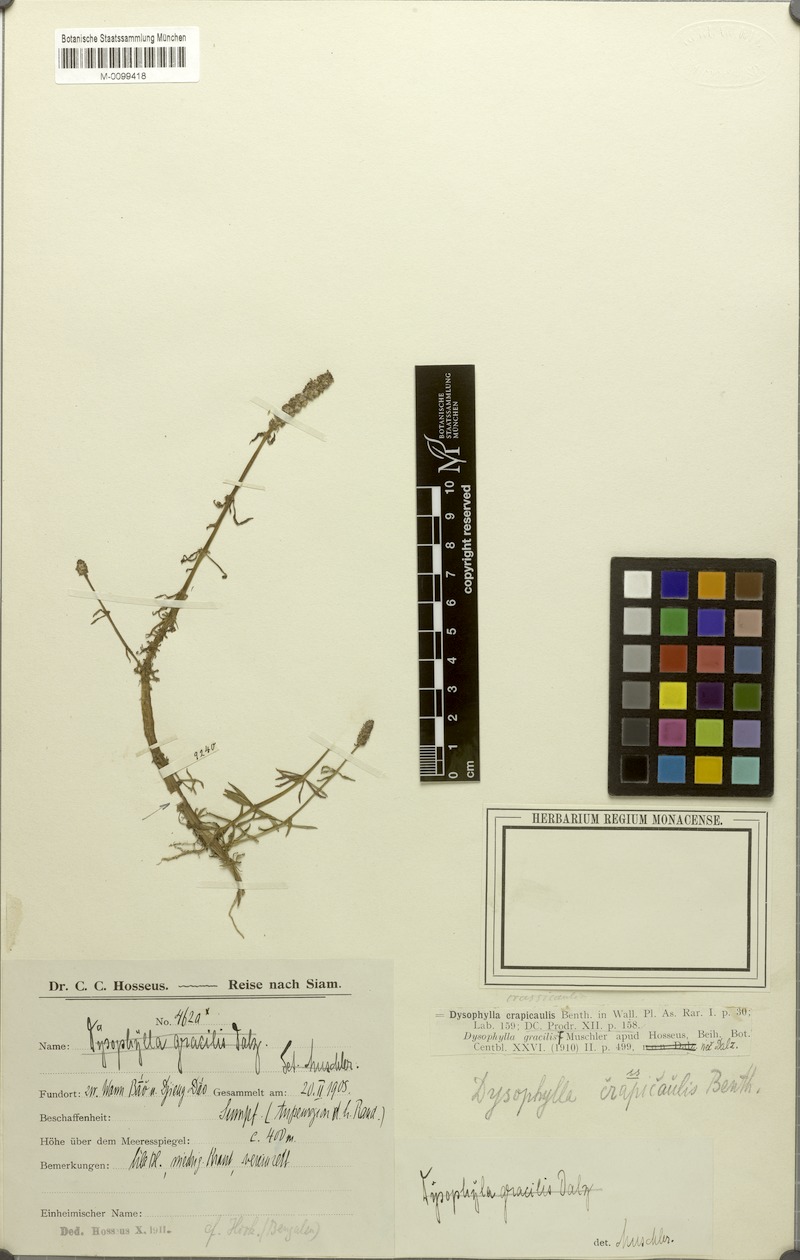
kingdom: Plantae
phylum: Tracheophyta
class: Magnoliopsida
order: Lamiales
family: Lamiaceae
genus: Pogostemon
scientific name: Pogostemon crassicaulis
